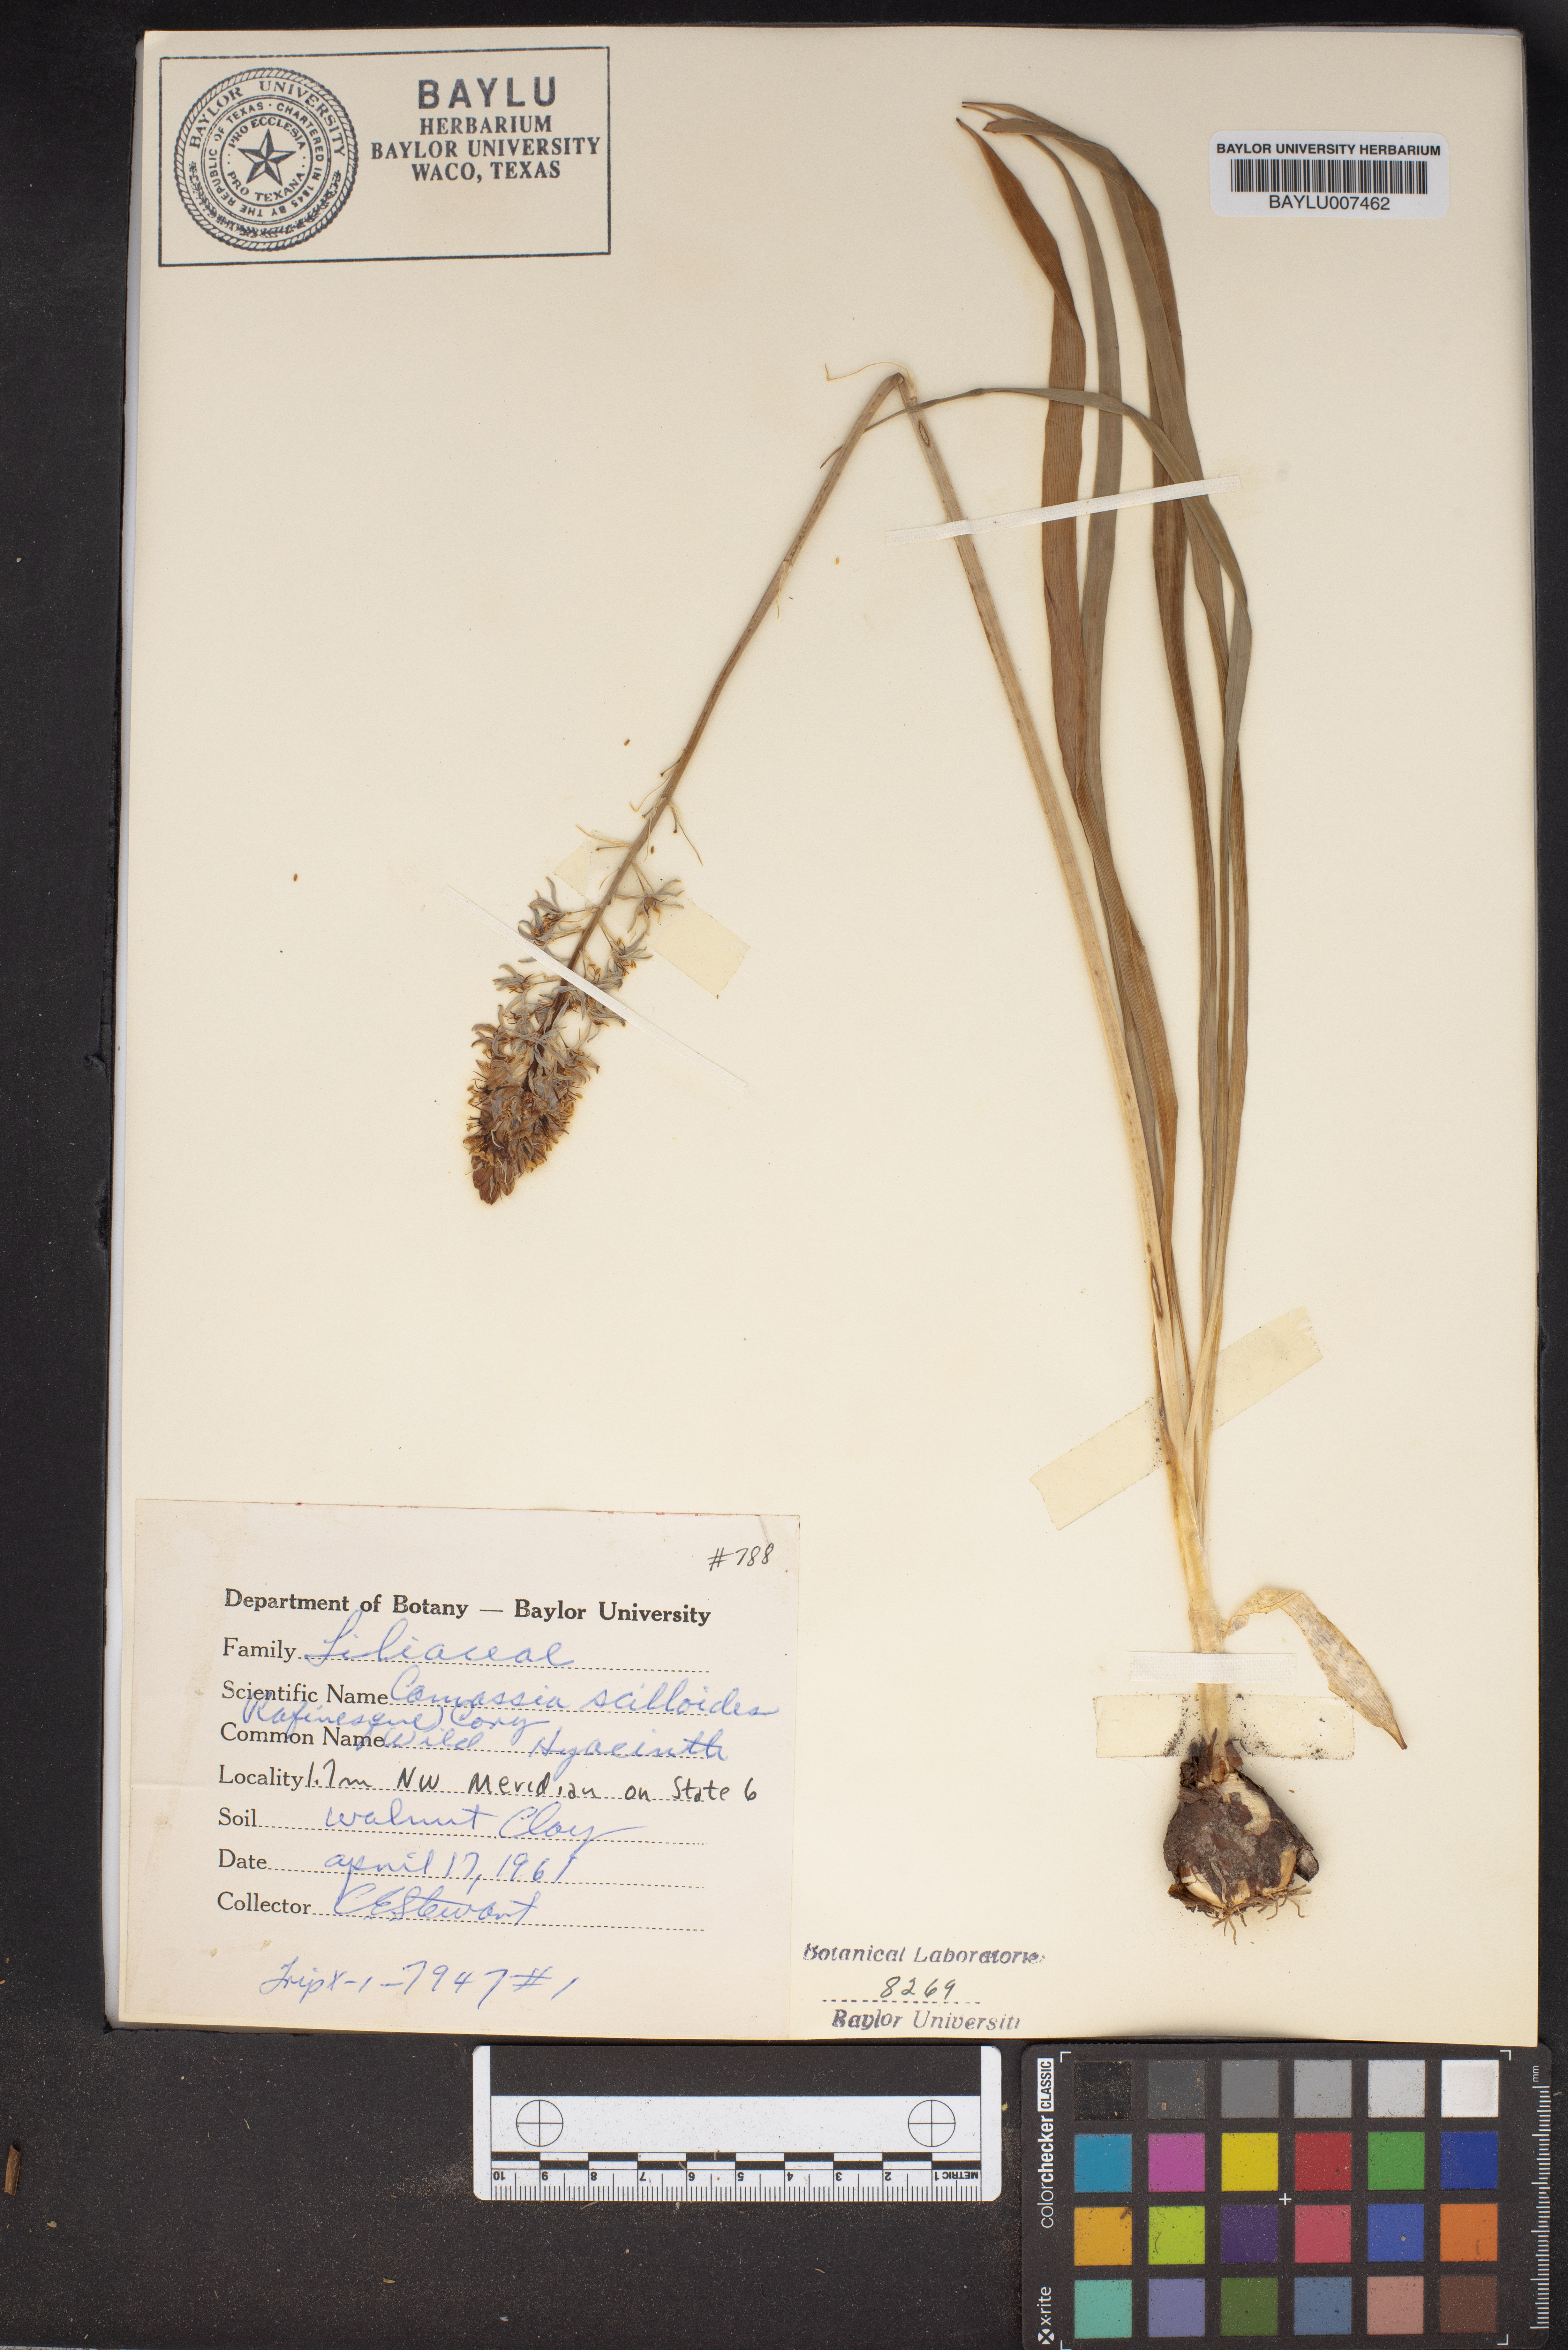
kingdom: Plantae
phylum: Tracheophyta
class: Liliopsida
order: Asparagales
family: Asparagaceae
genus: Camassia
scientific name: Camassia scilloides
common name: Wild hyacinth
